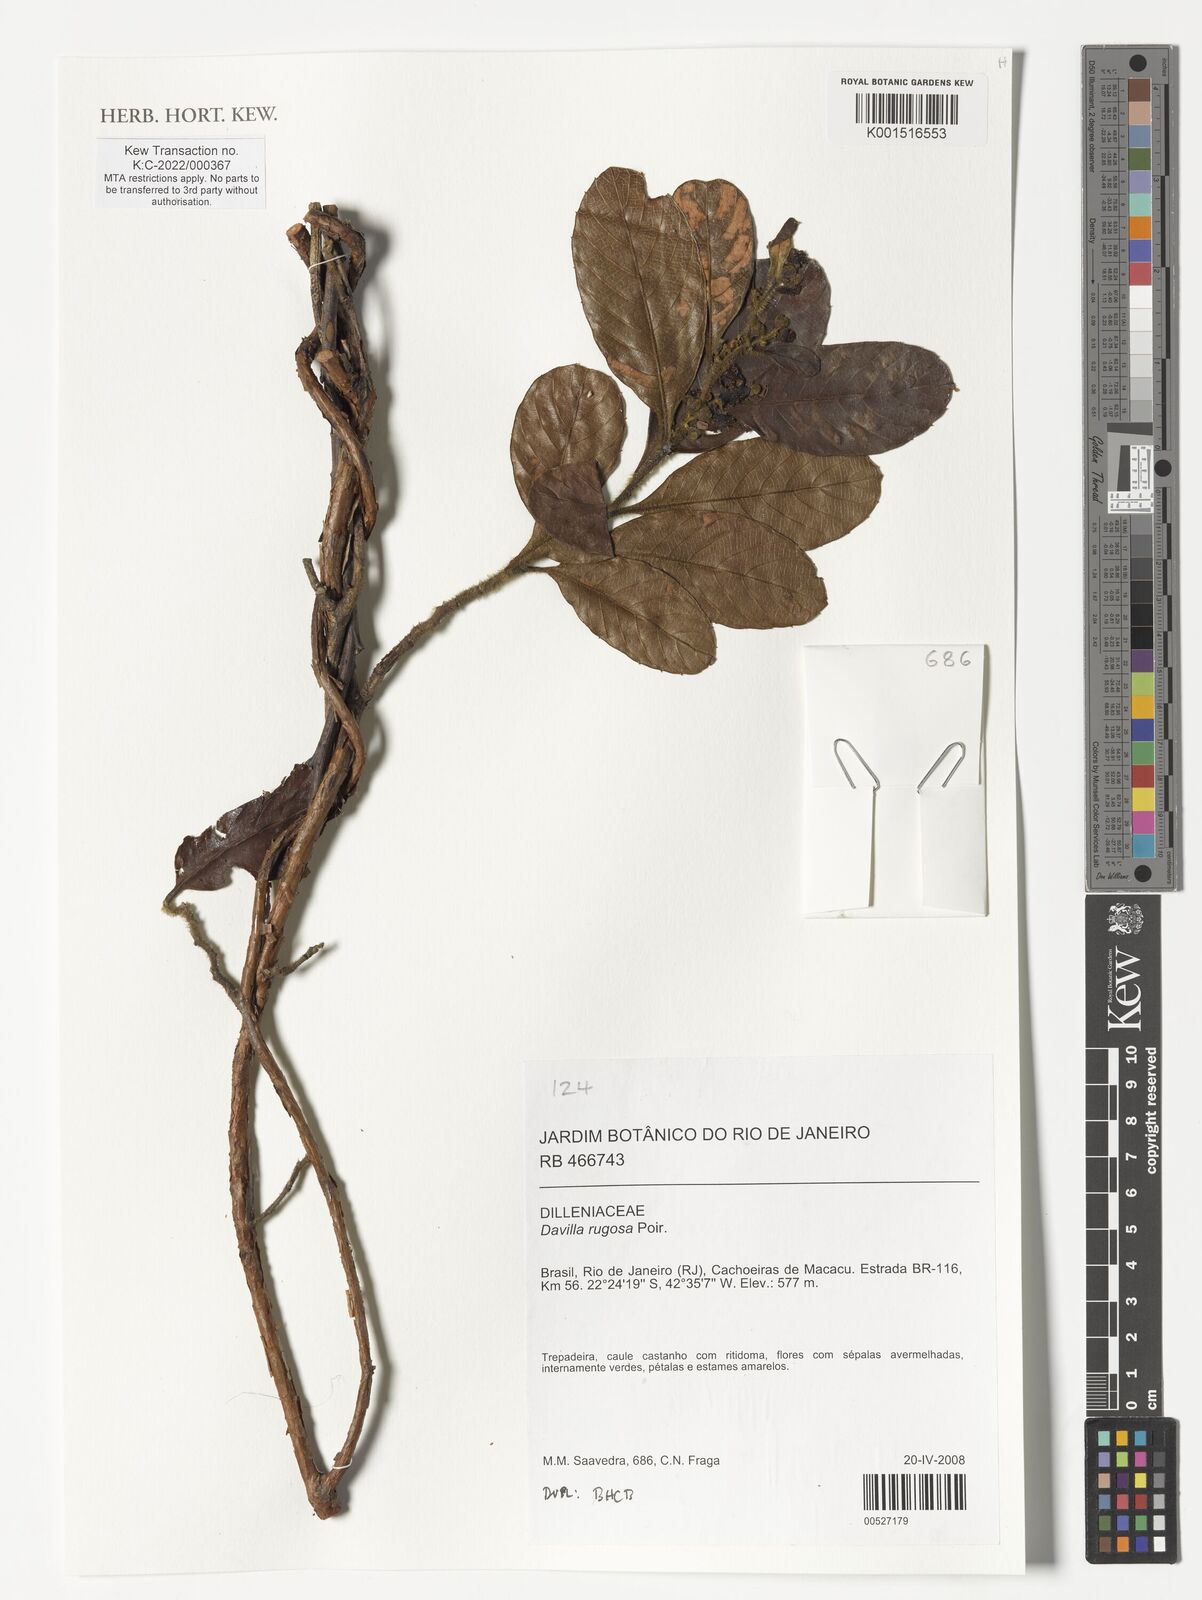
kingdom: Plantae
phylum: Tracheophyta
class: Magnoliopsida
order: Dilleniales
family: Dilleniaceae
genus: Davilla
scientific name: Davilla rugosa
